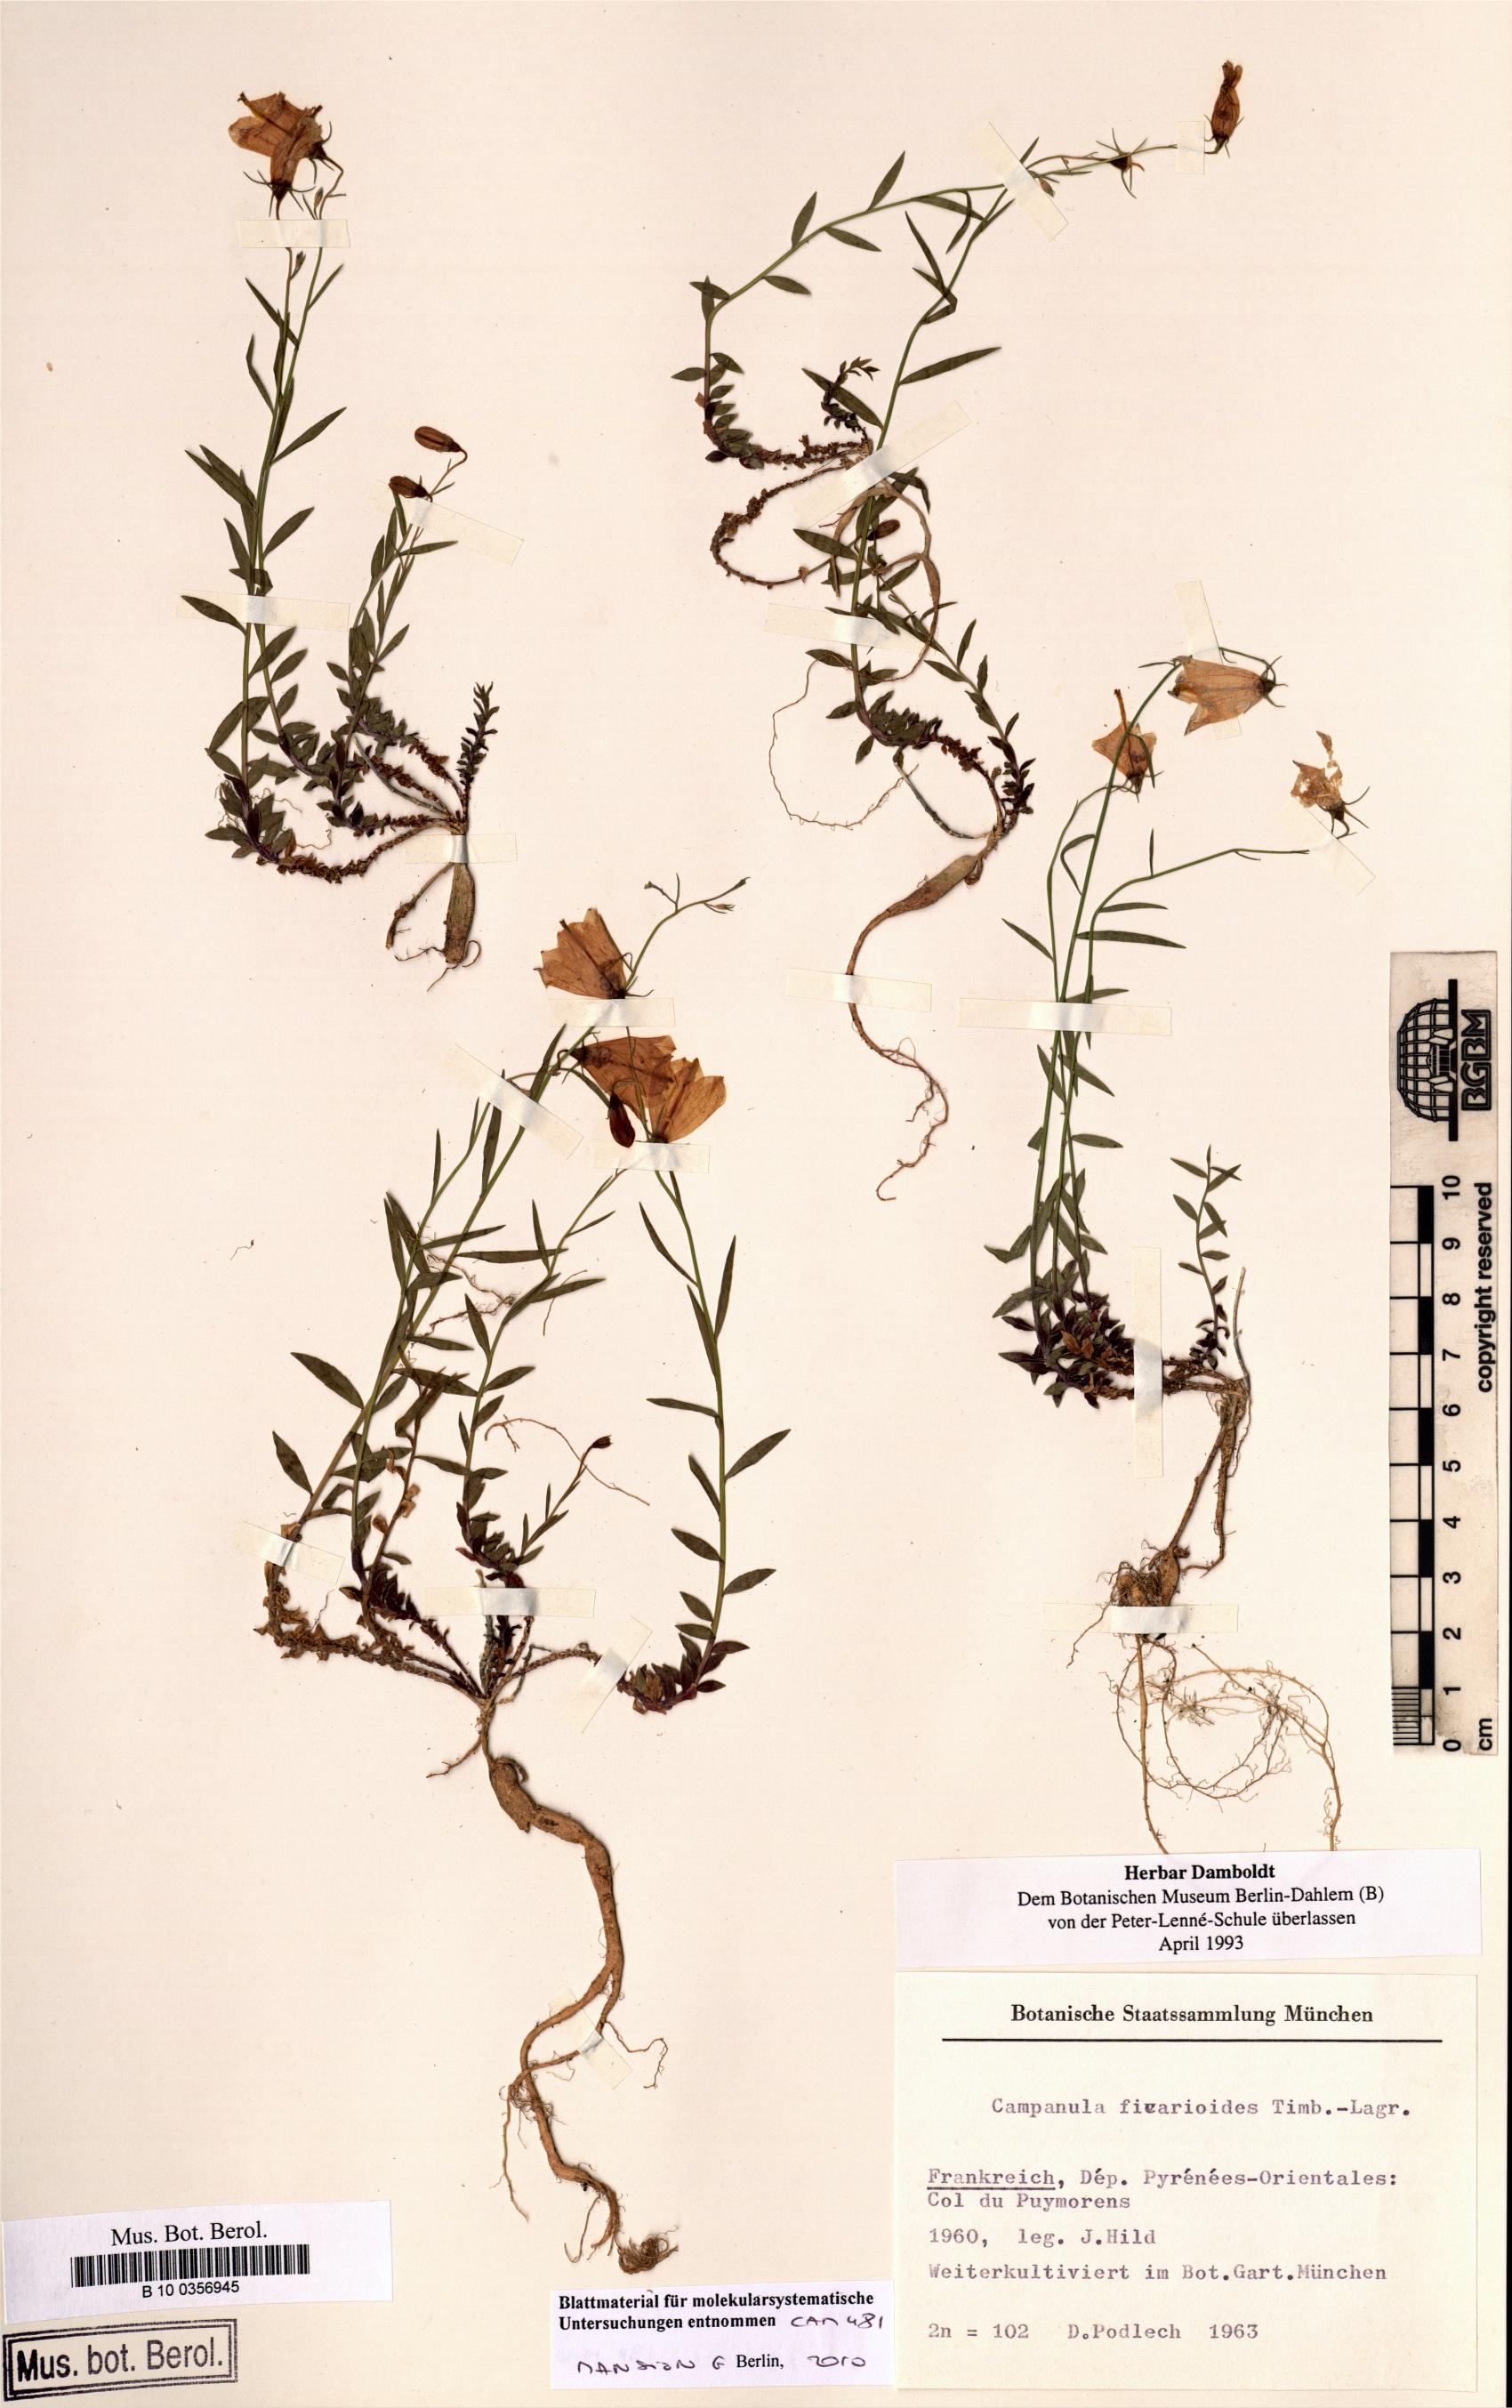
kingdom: Plantae
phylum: Tracheophyta
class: Magnoliopsida
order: Asterales
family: Campanulaceae
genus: Campanula
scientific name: Campanula ficarioides
